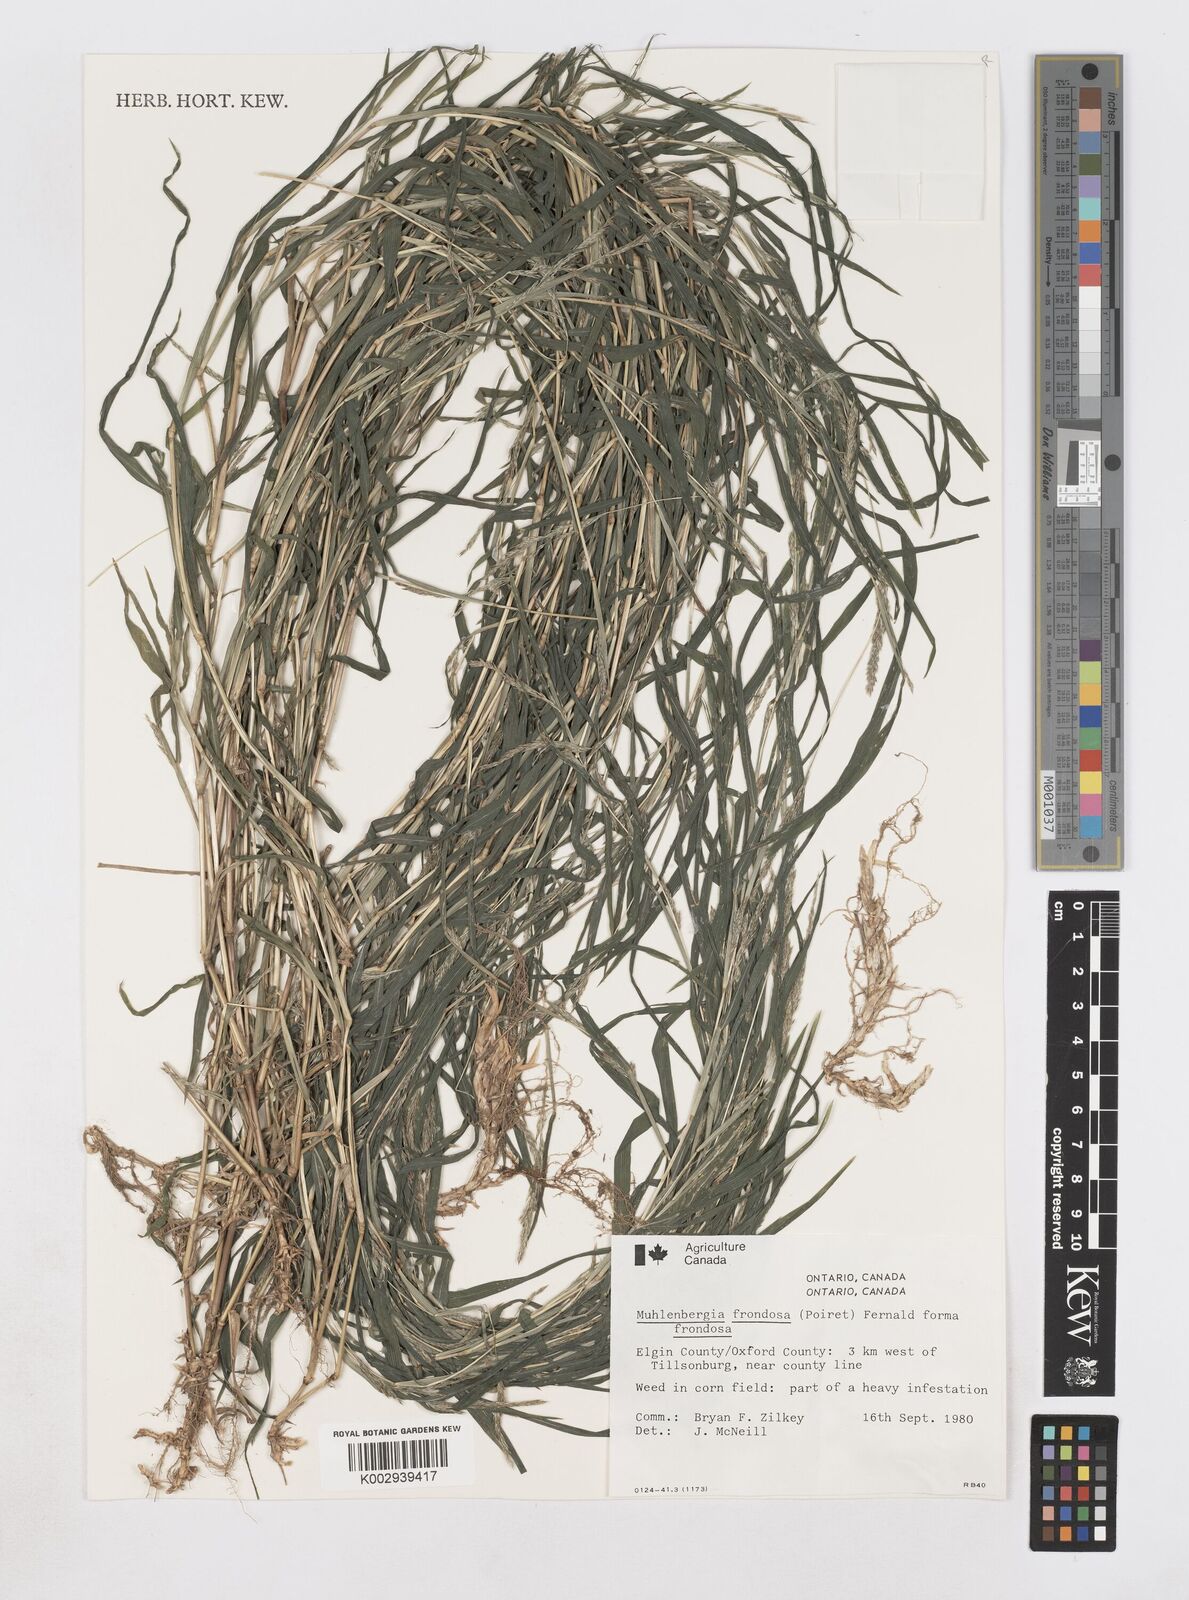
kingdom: Plantae
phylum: Tracheophyta
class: Liliopsida
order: Poales
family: Poaceae
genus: Muhlenbergia
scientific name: Muhlenbergia frondosa
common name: Common satingrass
